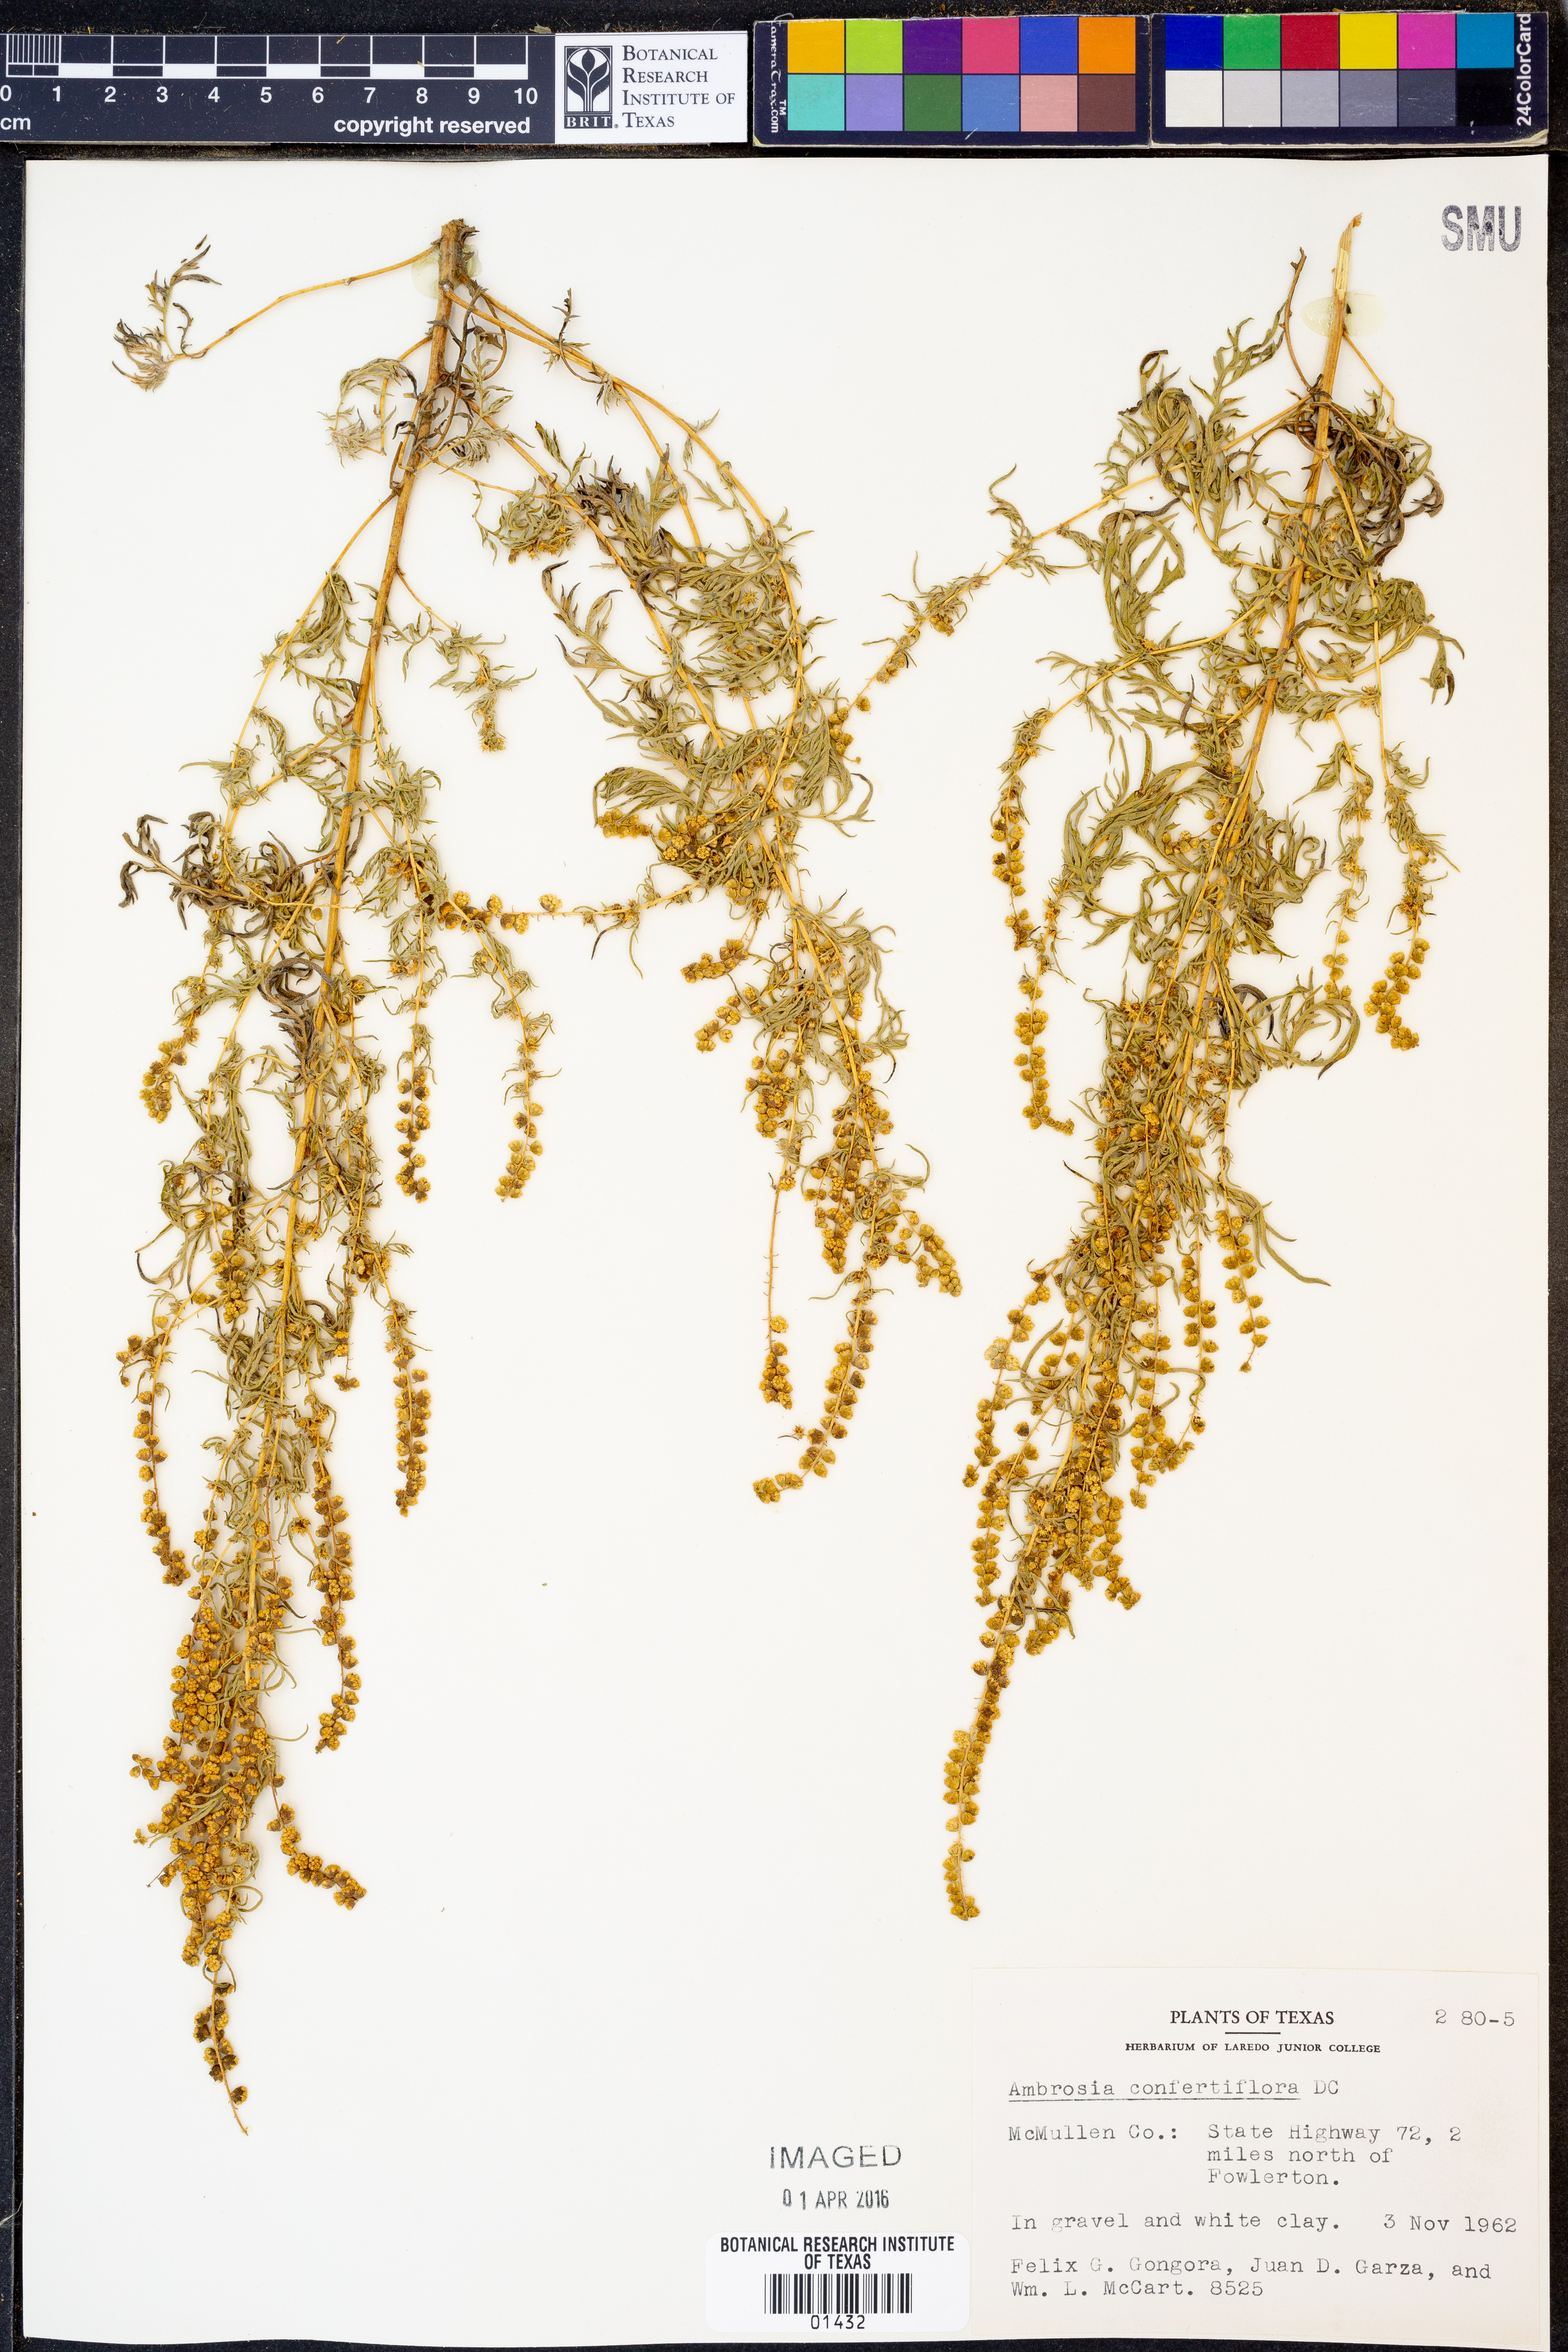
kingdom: Plantae
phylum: Tracheophyta
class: Magnoliopsida
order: Asterales
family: Asteraceae
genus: Ambrosia
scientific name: Ambrosia confertiflora
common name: Bur ragweed
